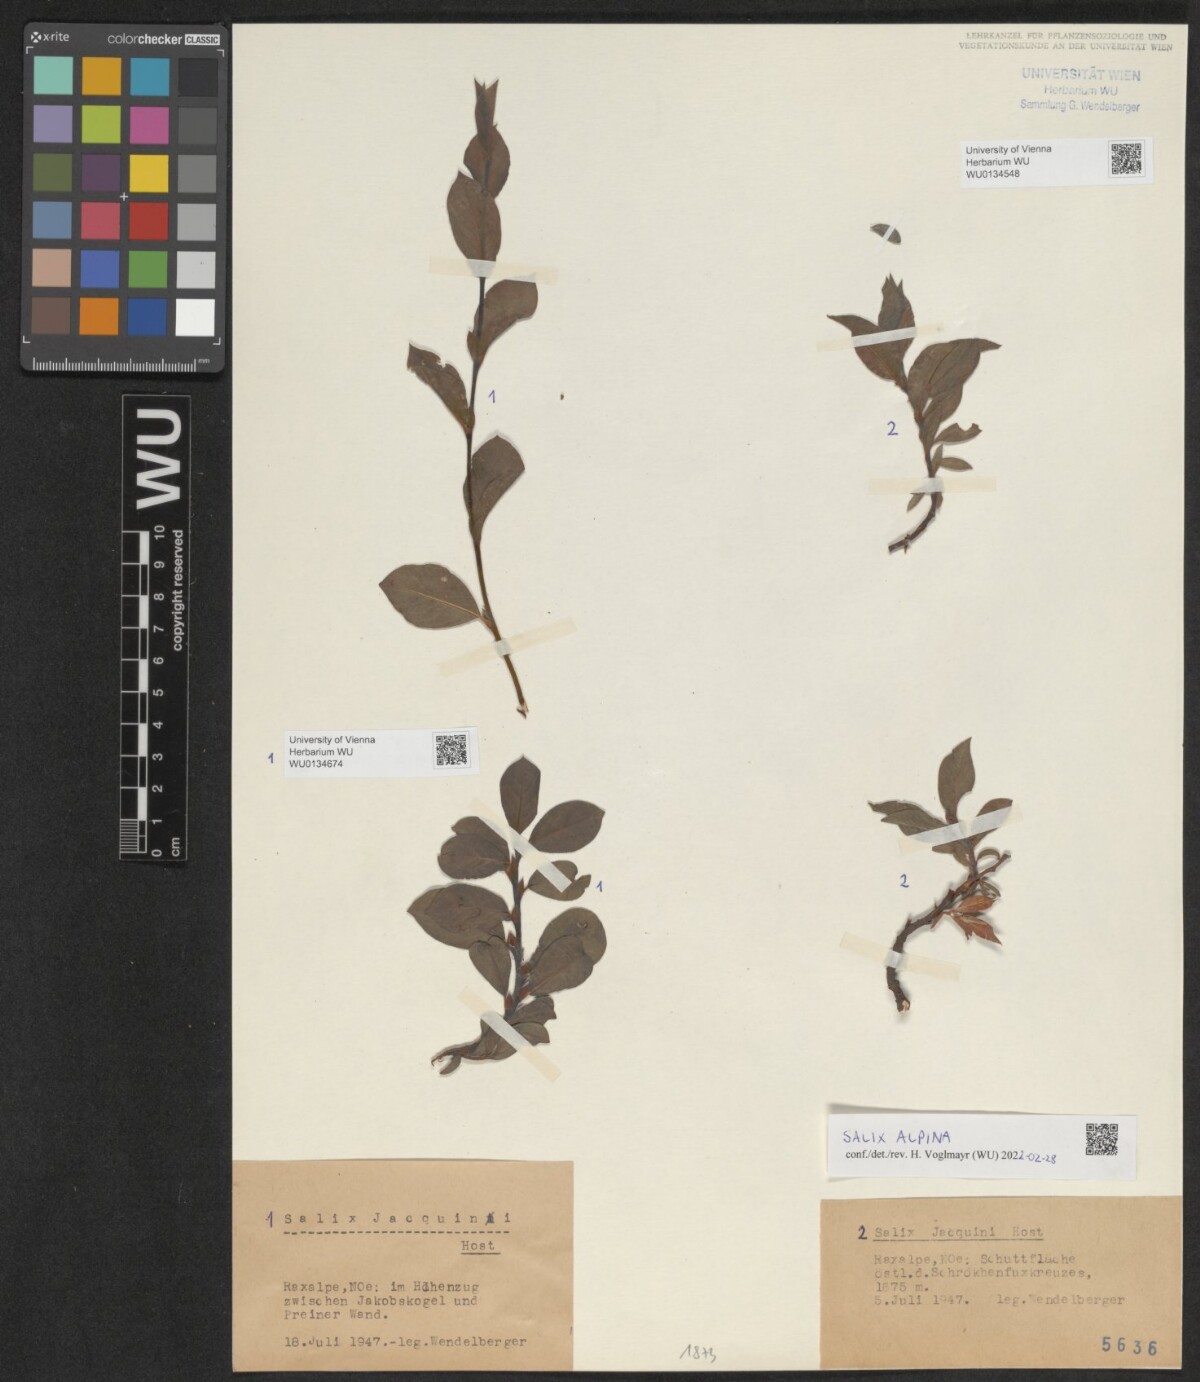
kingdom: Plantae
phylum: Tracheophyta
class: Magnoliopsida
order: Malpighiales
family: Salicaceae
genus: Salix
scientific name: Salix alpina
